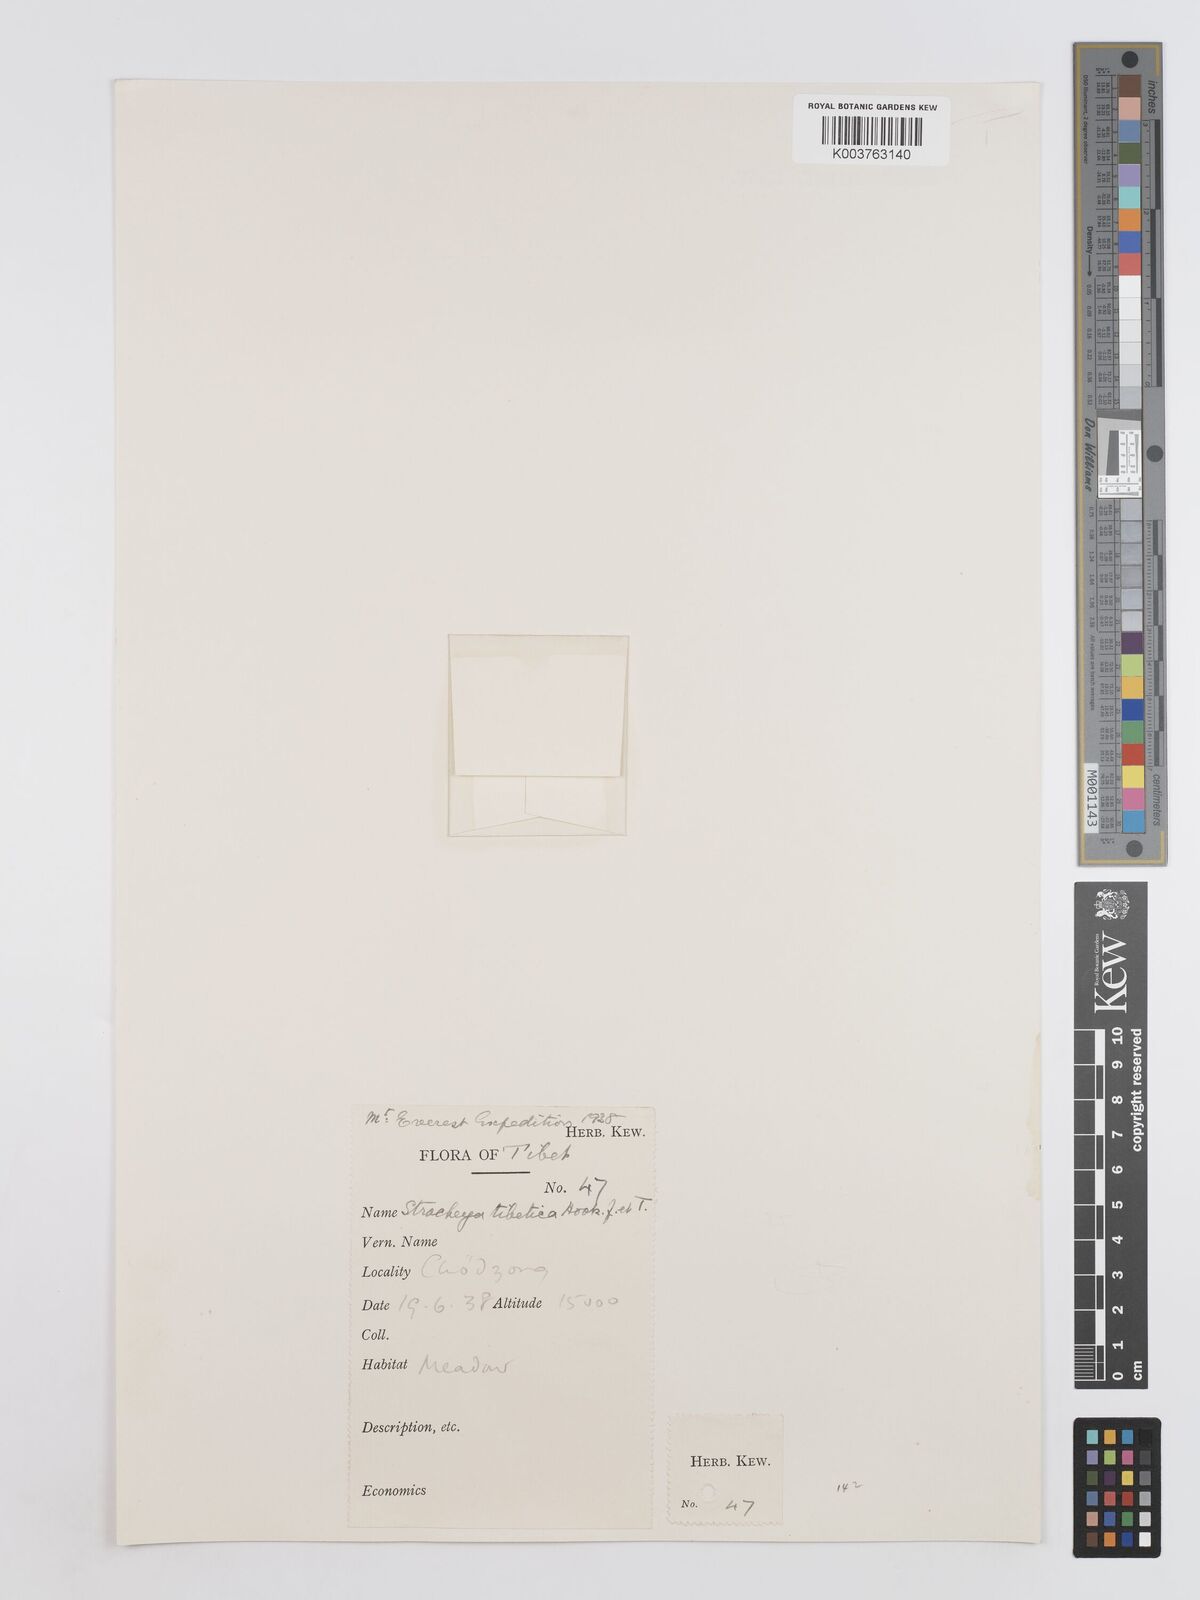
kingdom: Plantae
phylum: Tracheophyta
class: Magnoliopsida
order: Fabales
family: Fabaceae
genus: Hedysarum
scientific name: Hedysarum tibeticum
